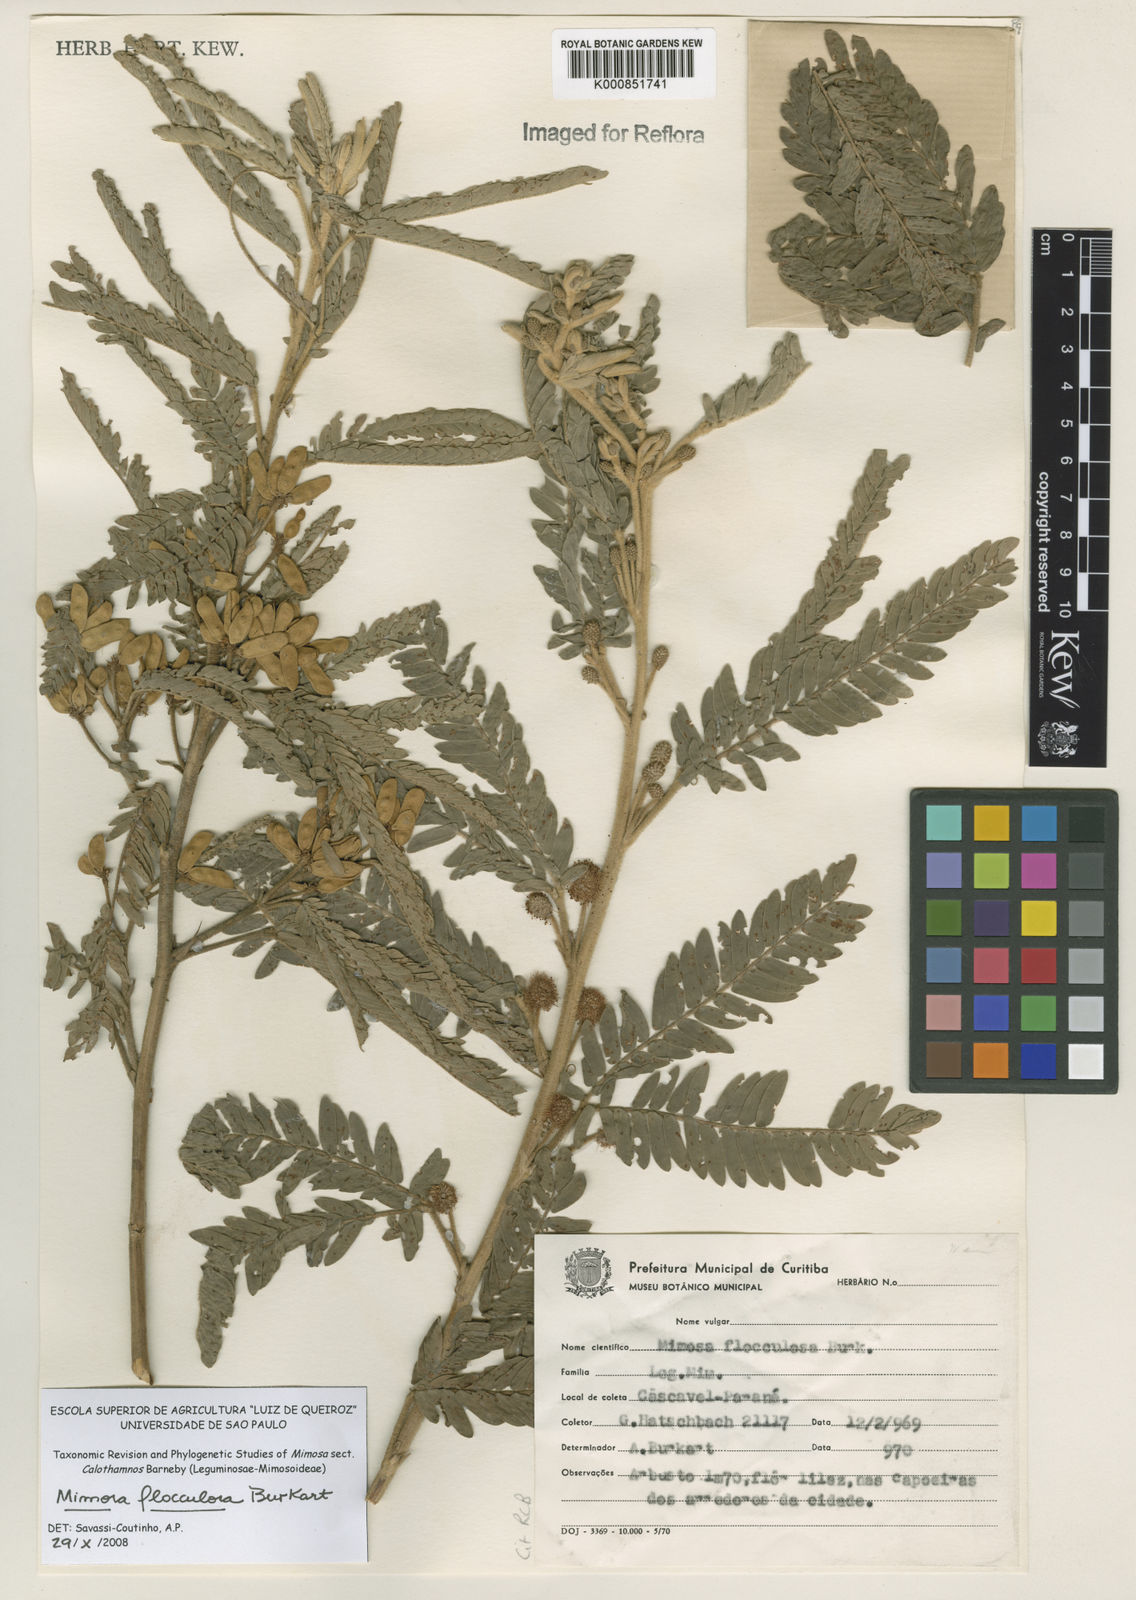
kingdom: Plantae
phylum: Tracheophyta
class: Magnoliopsida
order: Fabales
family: Fabaceae
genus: Mimosa
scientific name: Mimosa flocculosa
